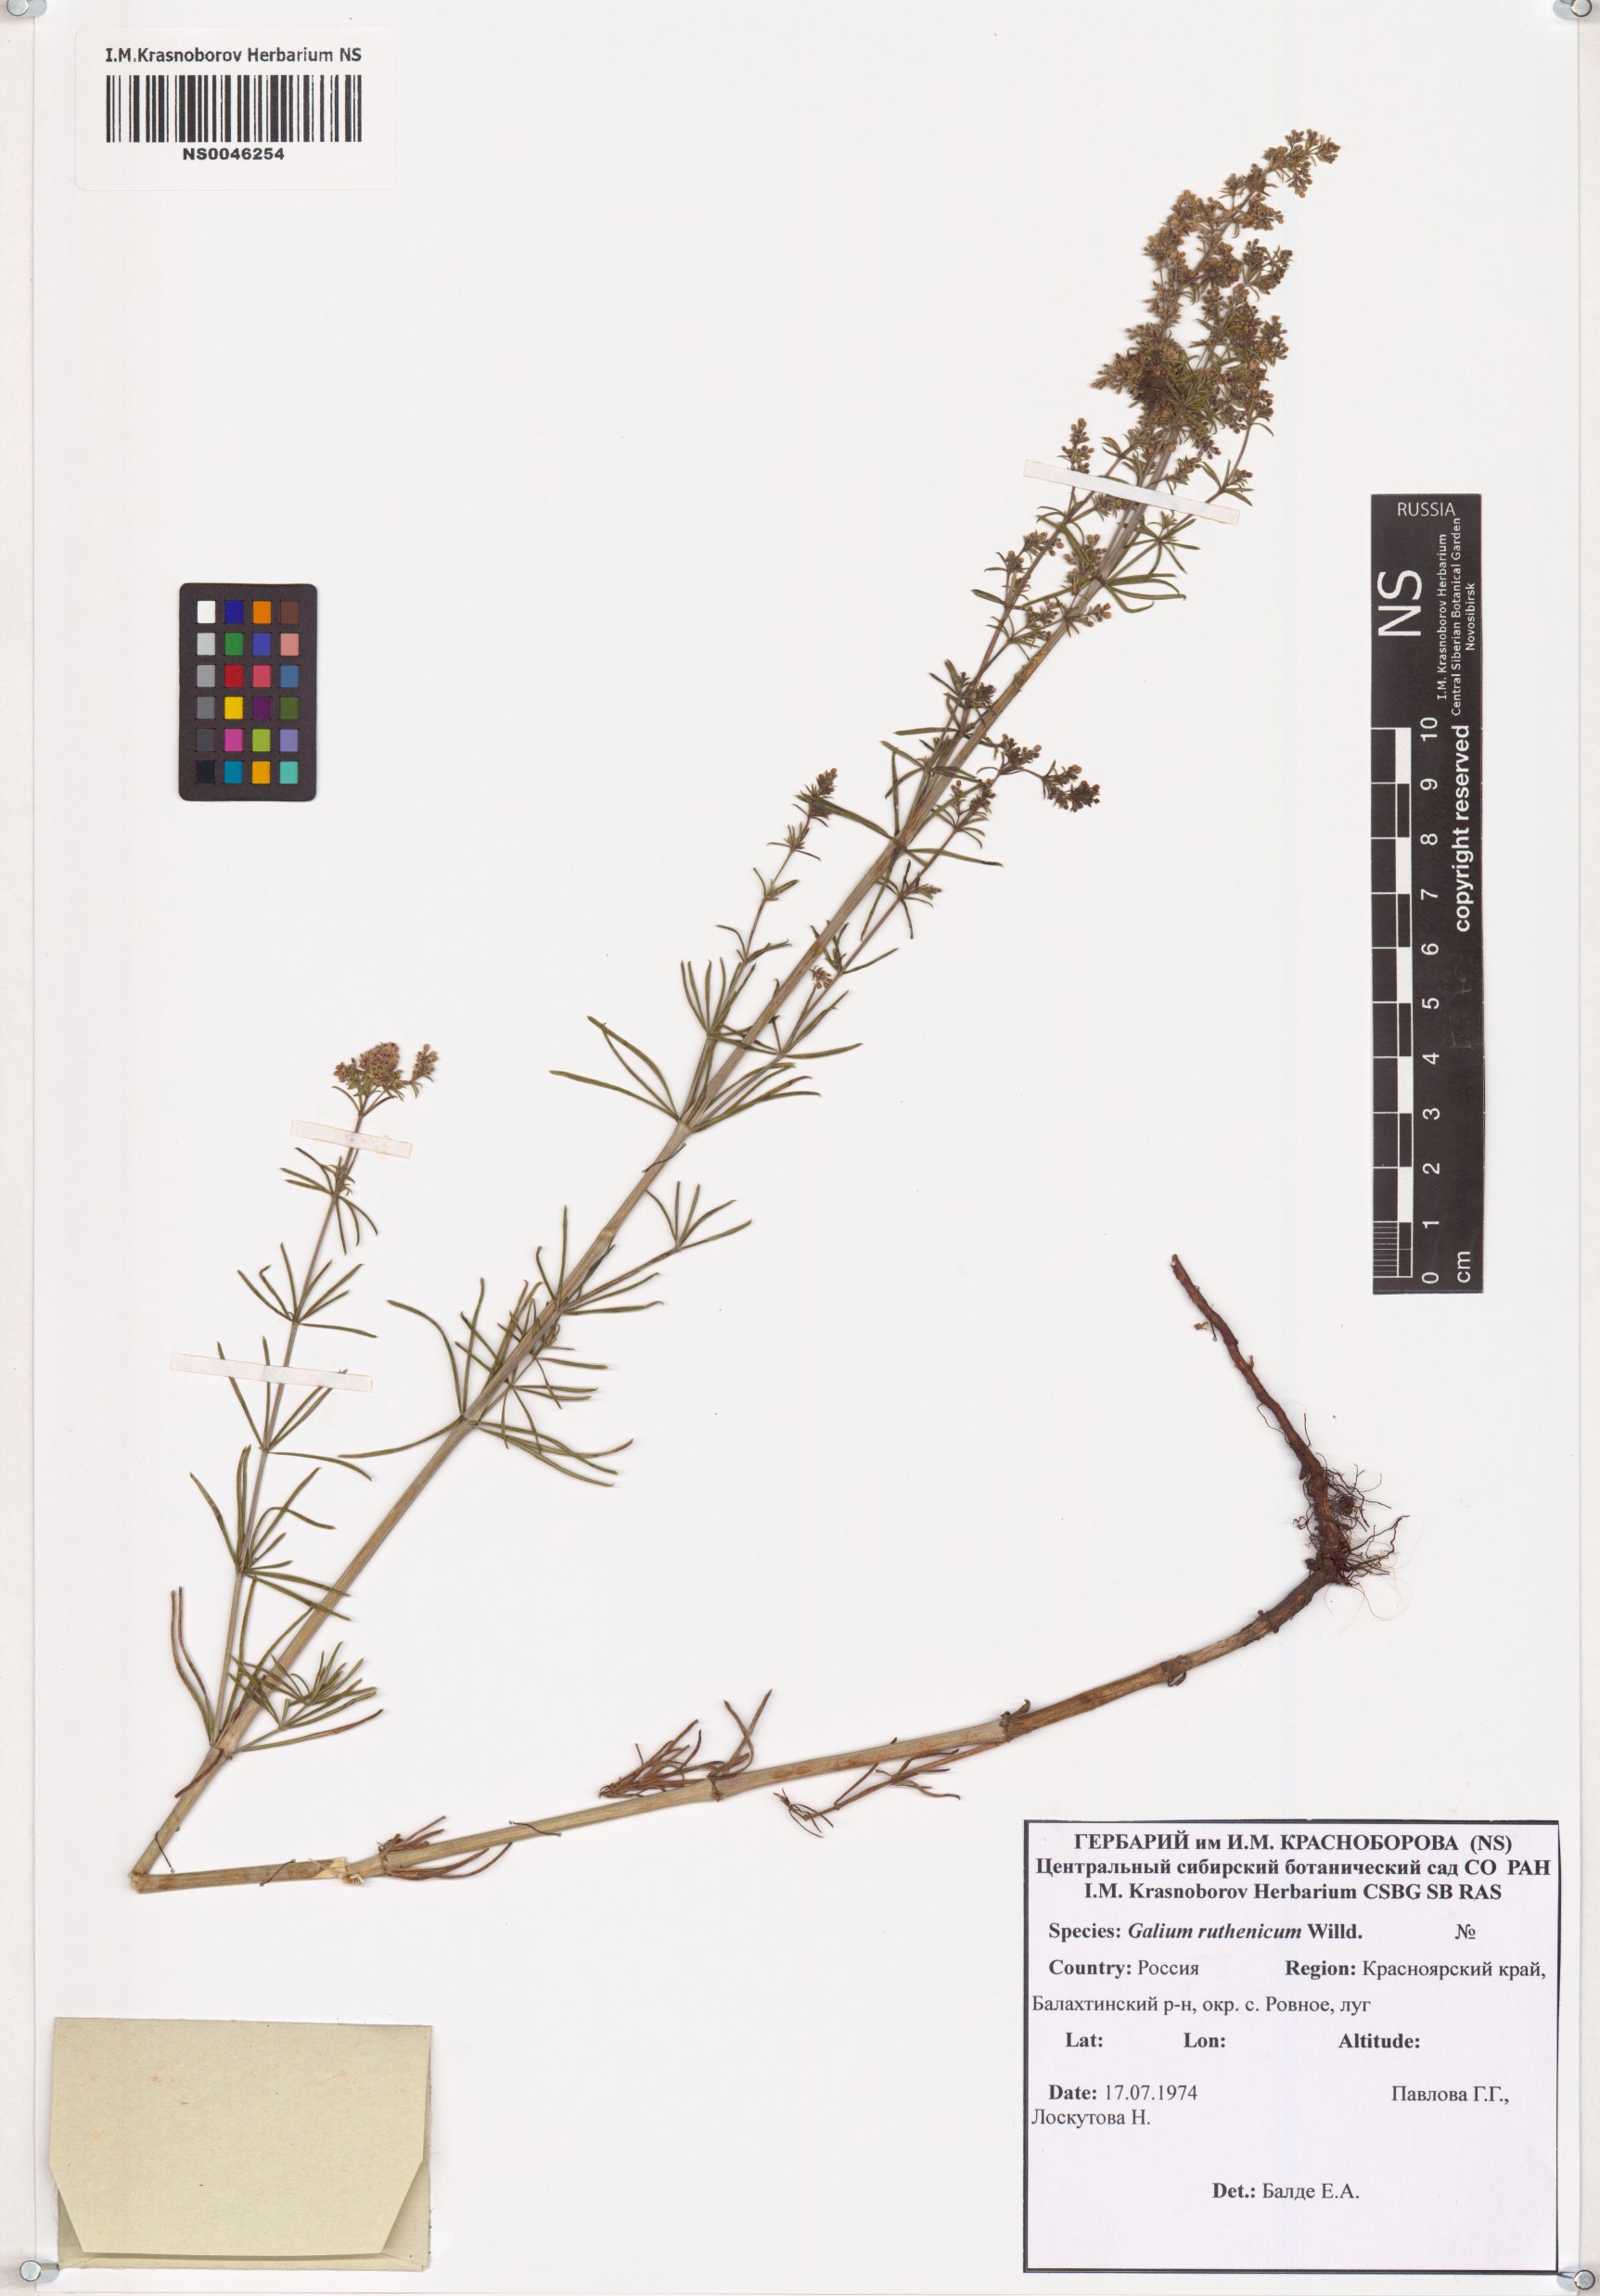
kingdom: Plantae
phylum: Tracheophyta
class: Magnoliopsida
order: Gentianales
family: Rubiaceae
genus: Galium
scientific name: Galium verum
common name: Lady's bedstraw
